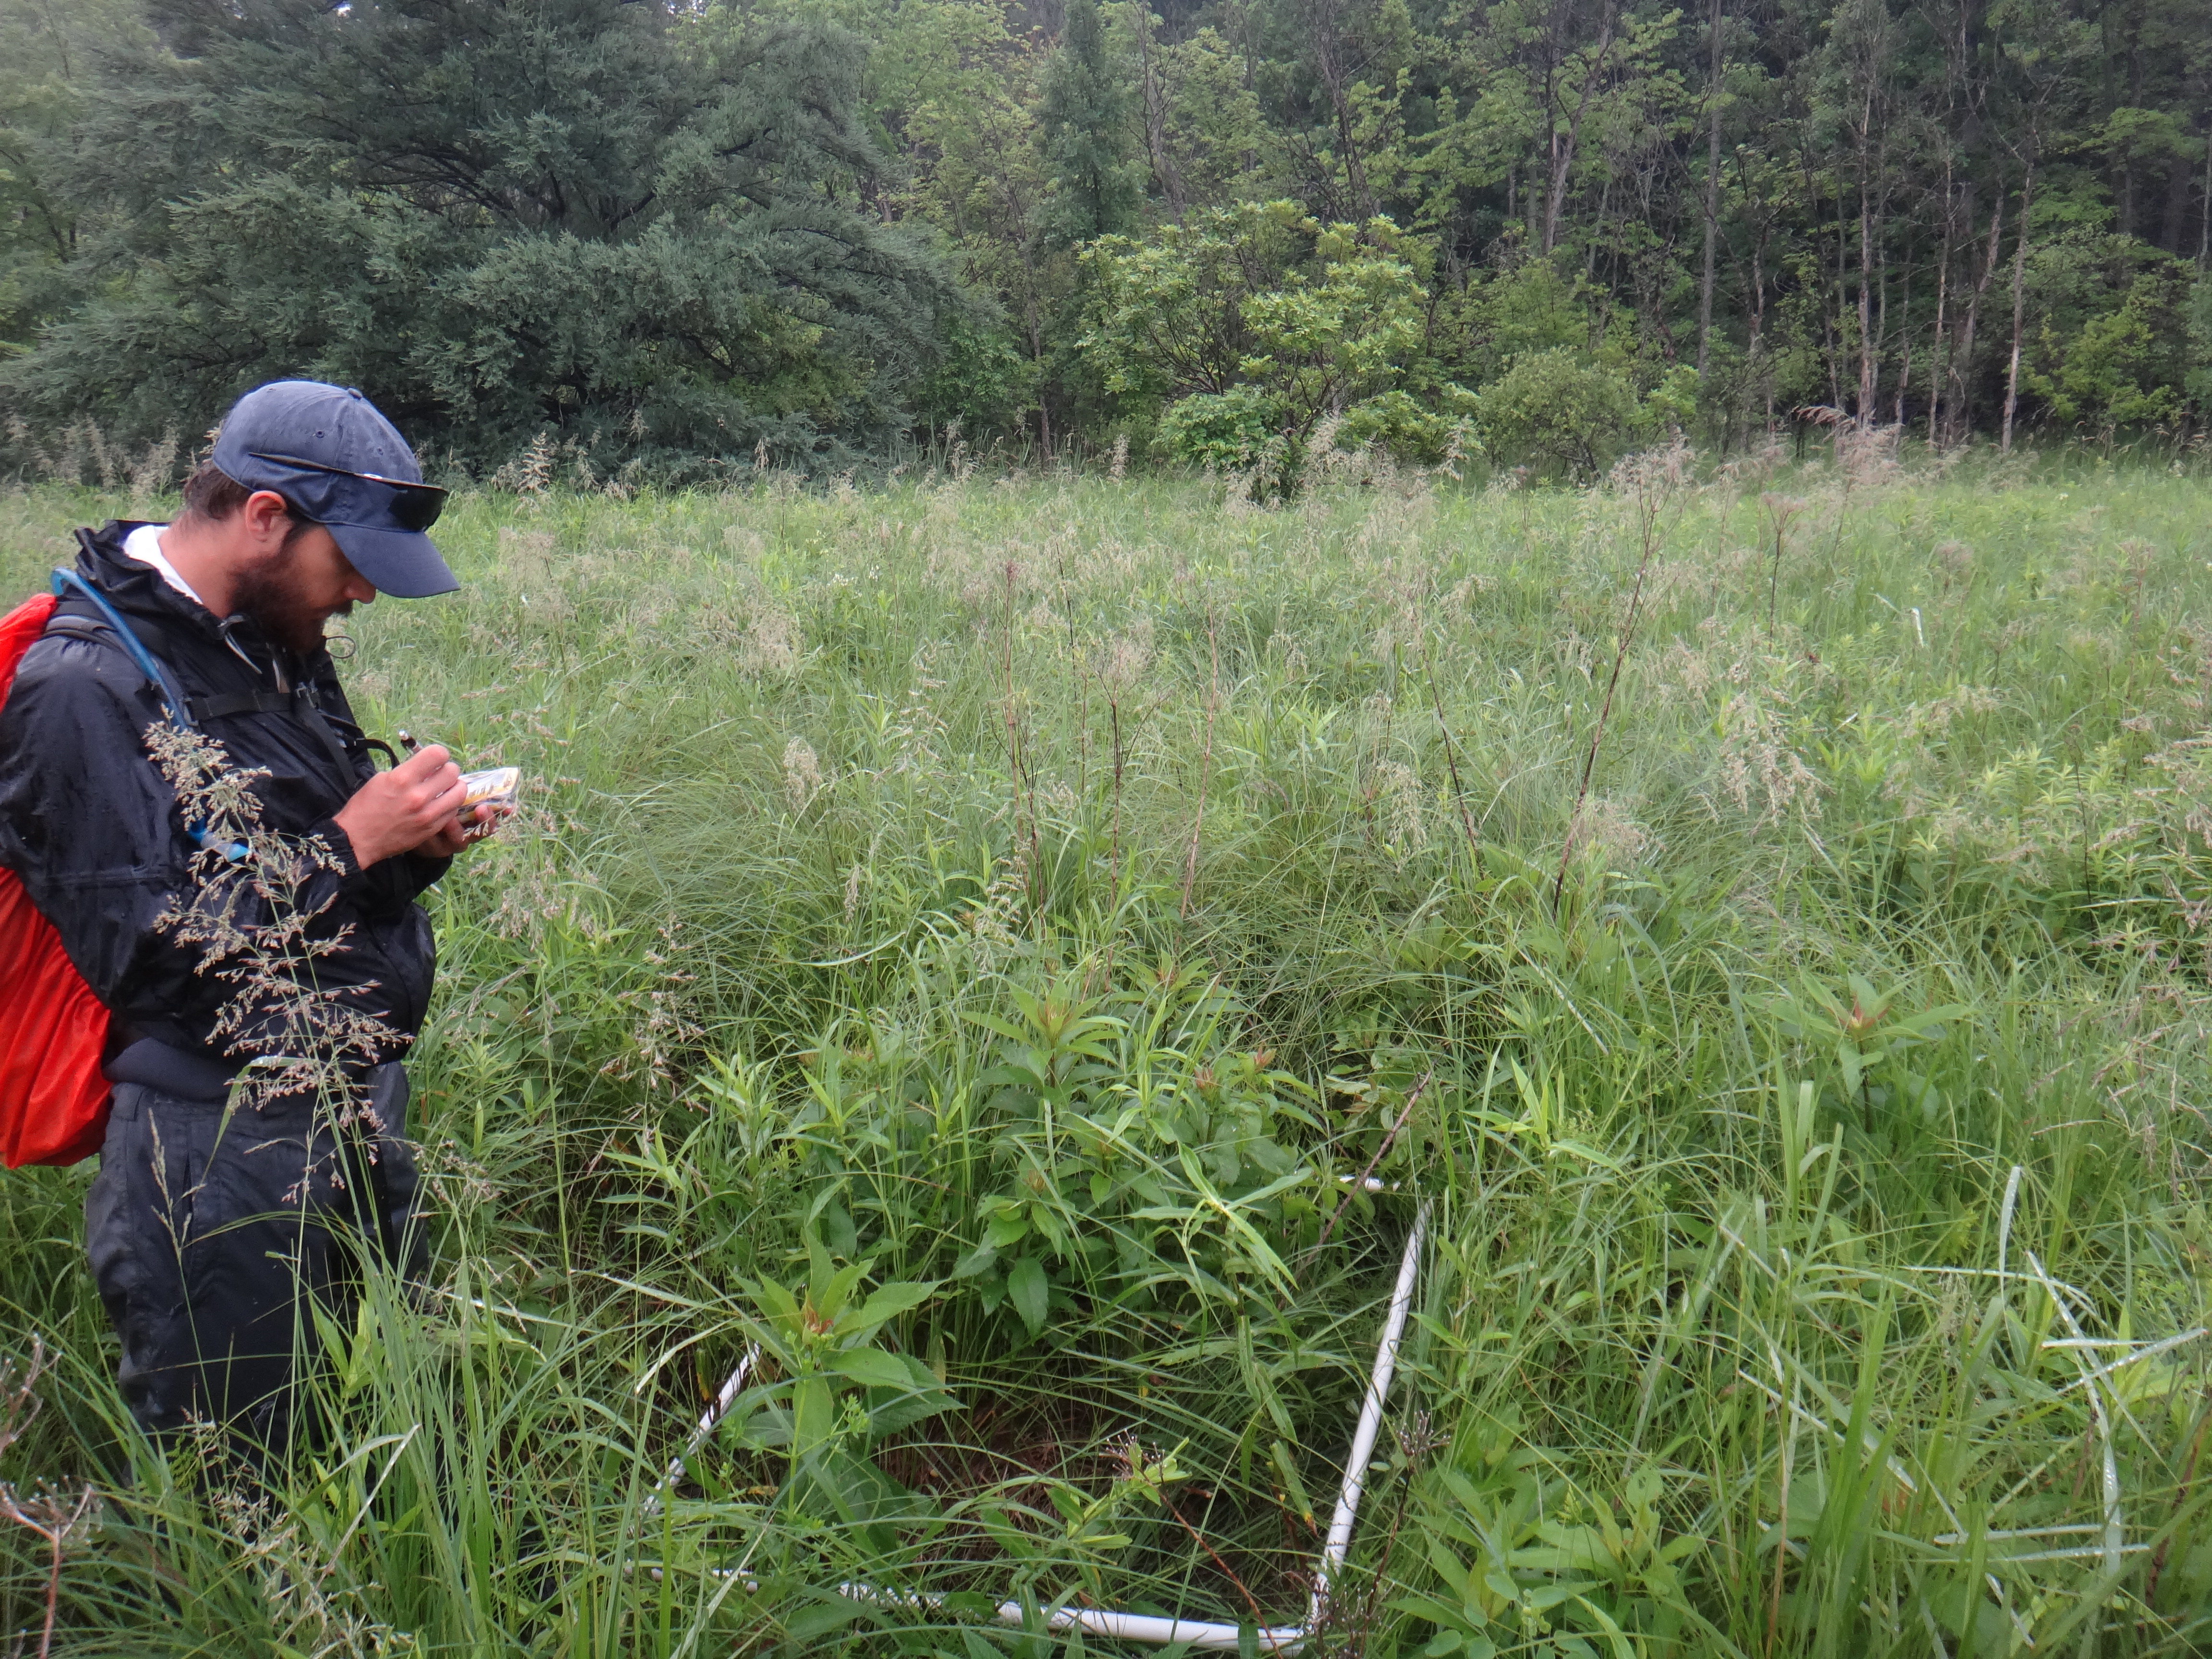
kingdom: Plantae
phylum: Tracheophyta
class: Magnoliopsida
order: Solanales
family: Convolvulaceae
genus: Calystegia
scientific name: Calystegia sepium
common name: Hedge bindweed
